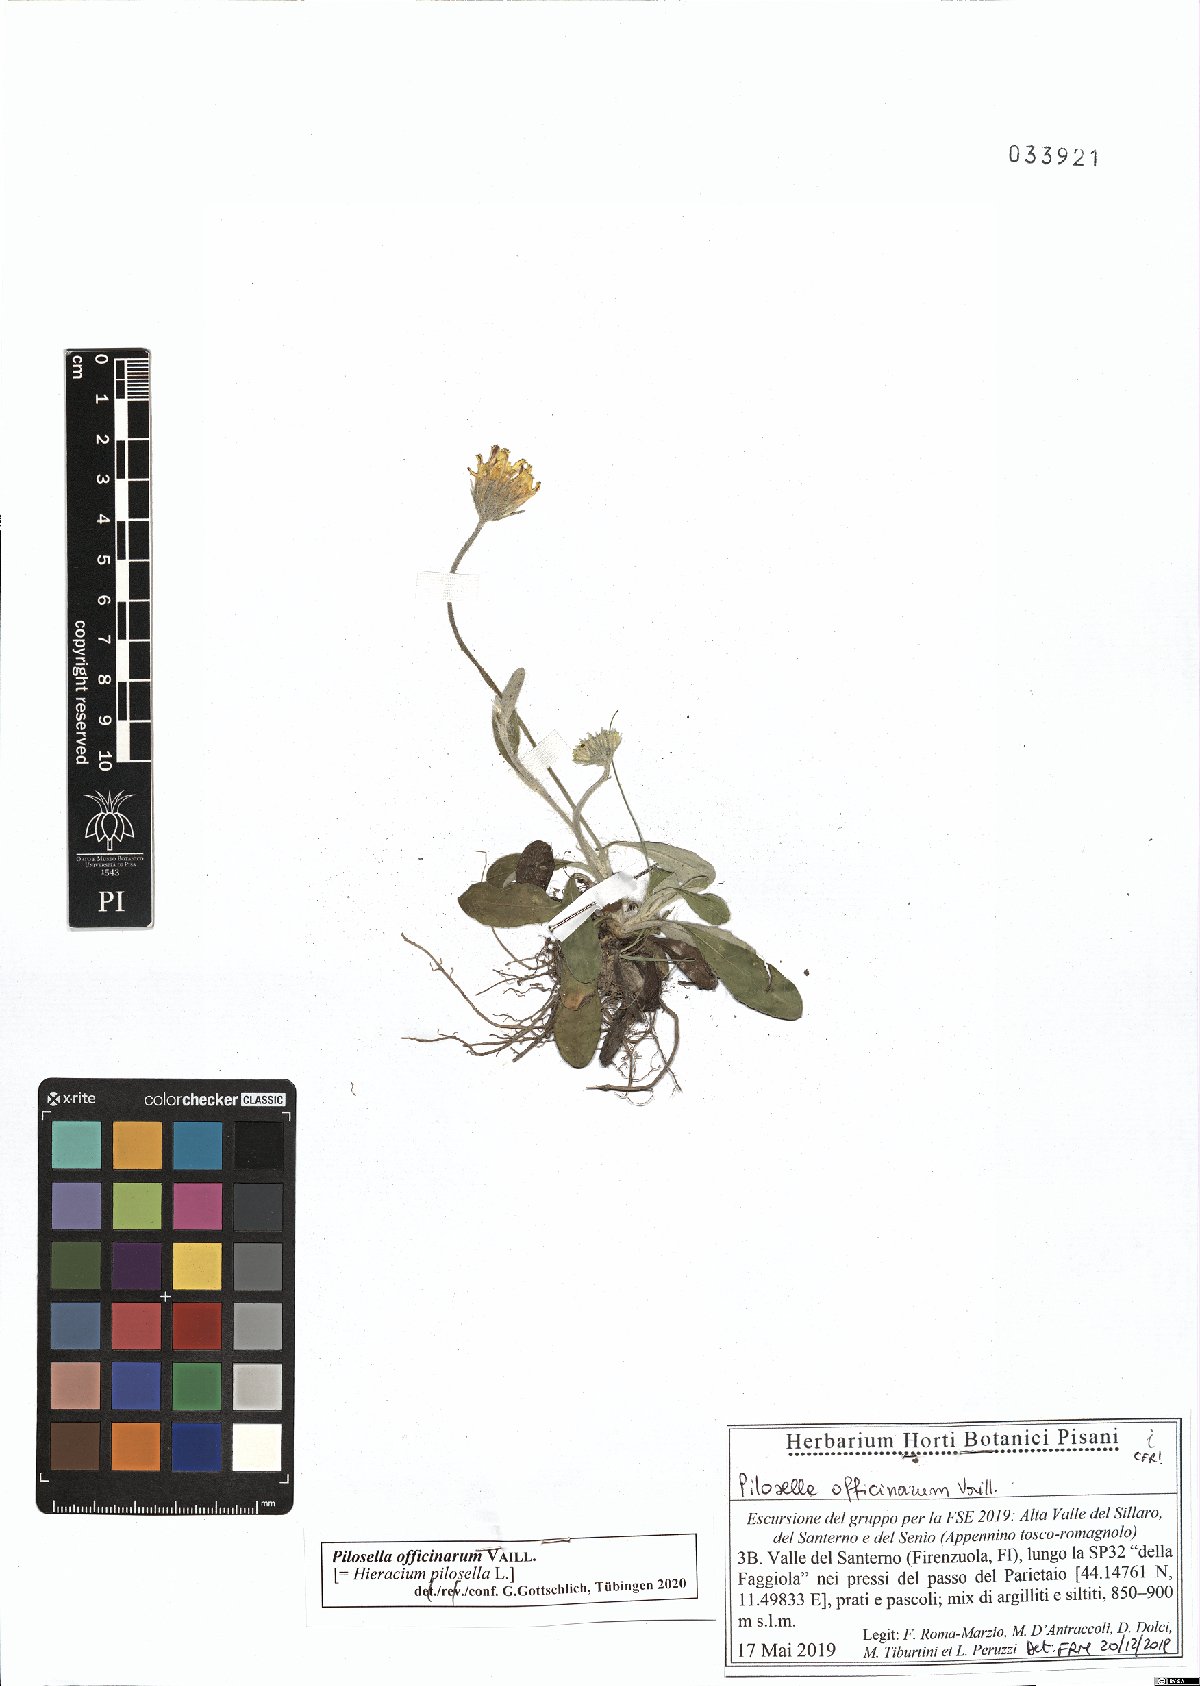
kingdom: Plantae
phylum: Tracheophyta
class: Magnoliopsida
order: Asterales
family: Asteraceae
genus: Pilosella
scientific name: Pilosella officinarum
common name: Mouse-ear hawkweed
